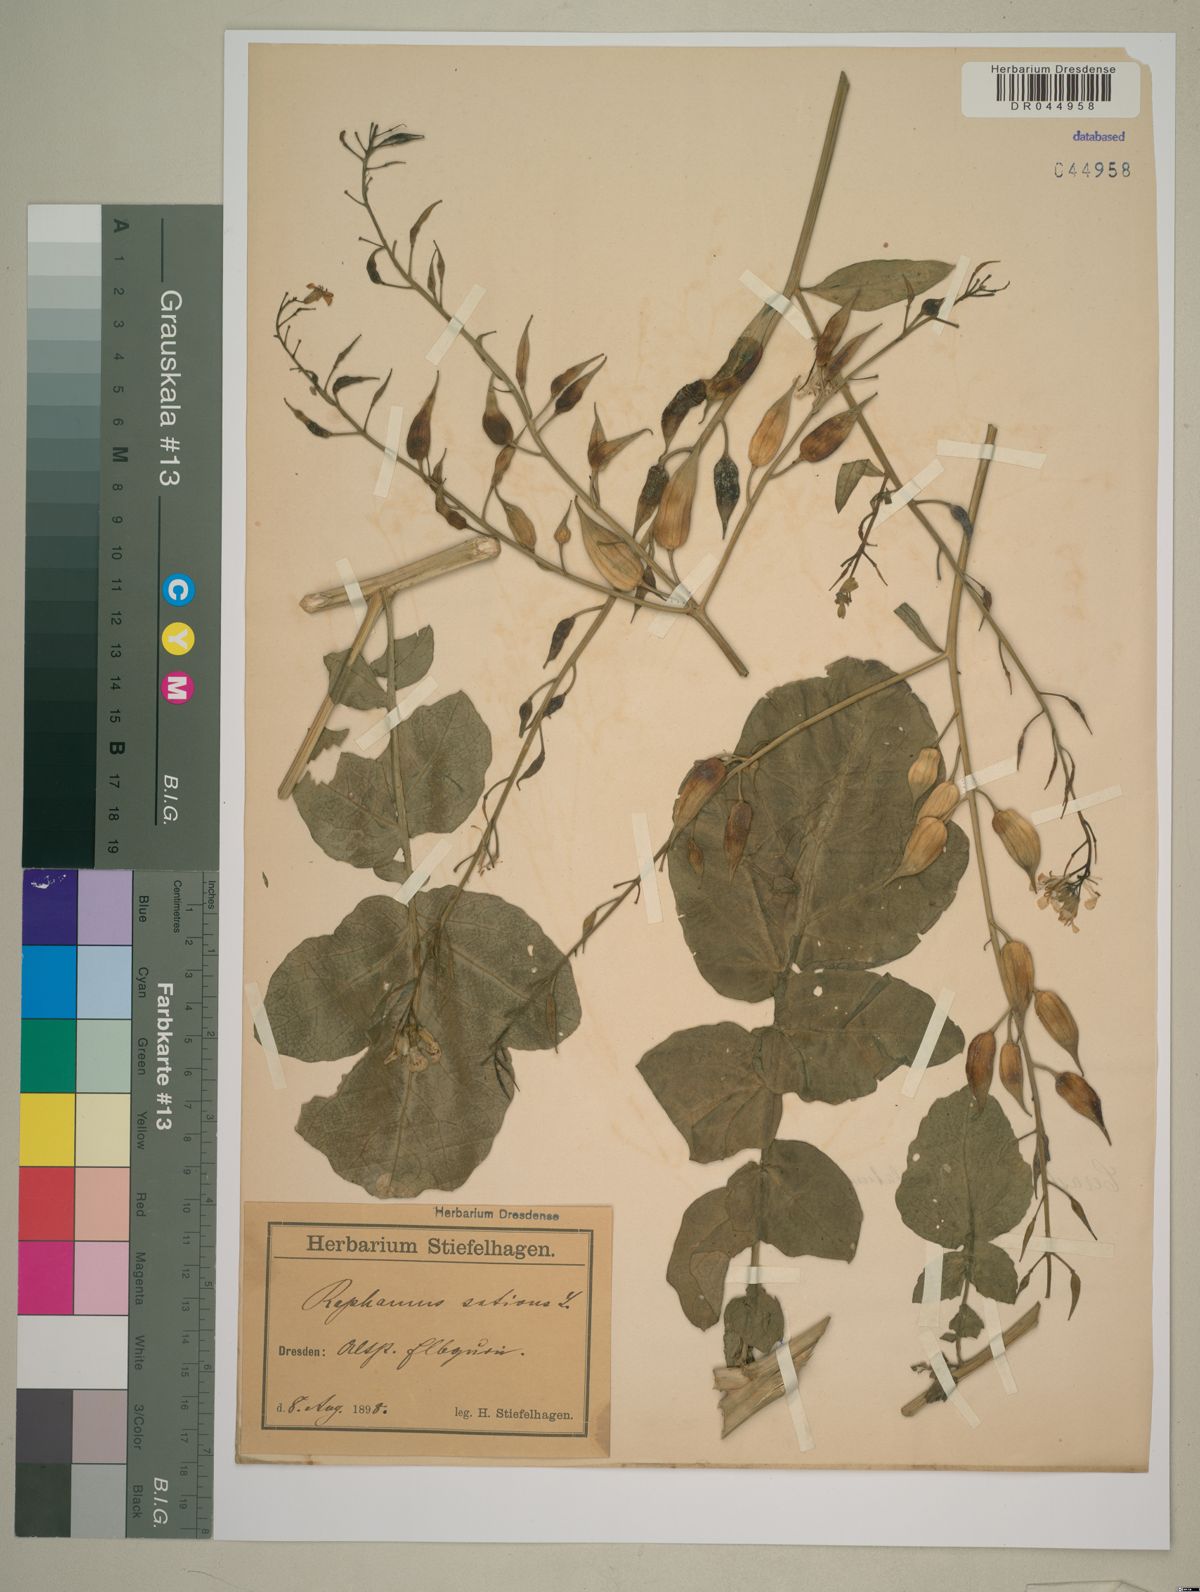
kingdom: Plantae
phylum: Tracheophyta
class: Magnoliopsida
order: Brassicales
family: Brassicaceae
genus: Raphanus
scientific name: Raphanus sativus
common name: Cultivated radish
